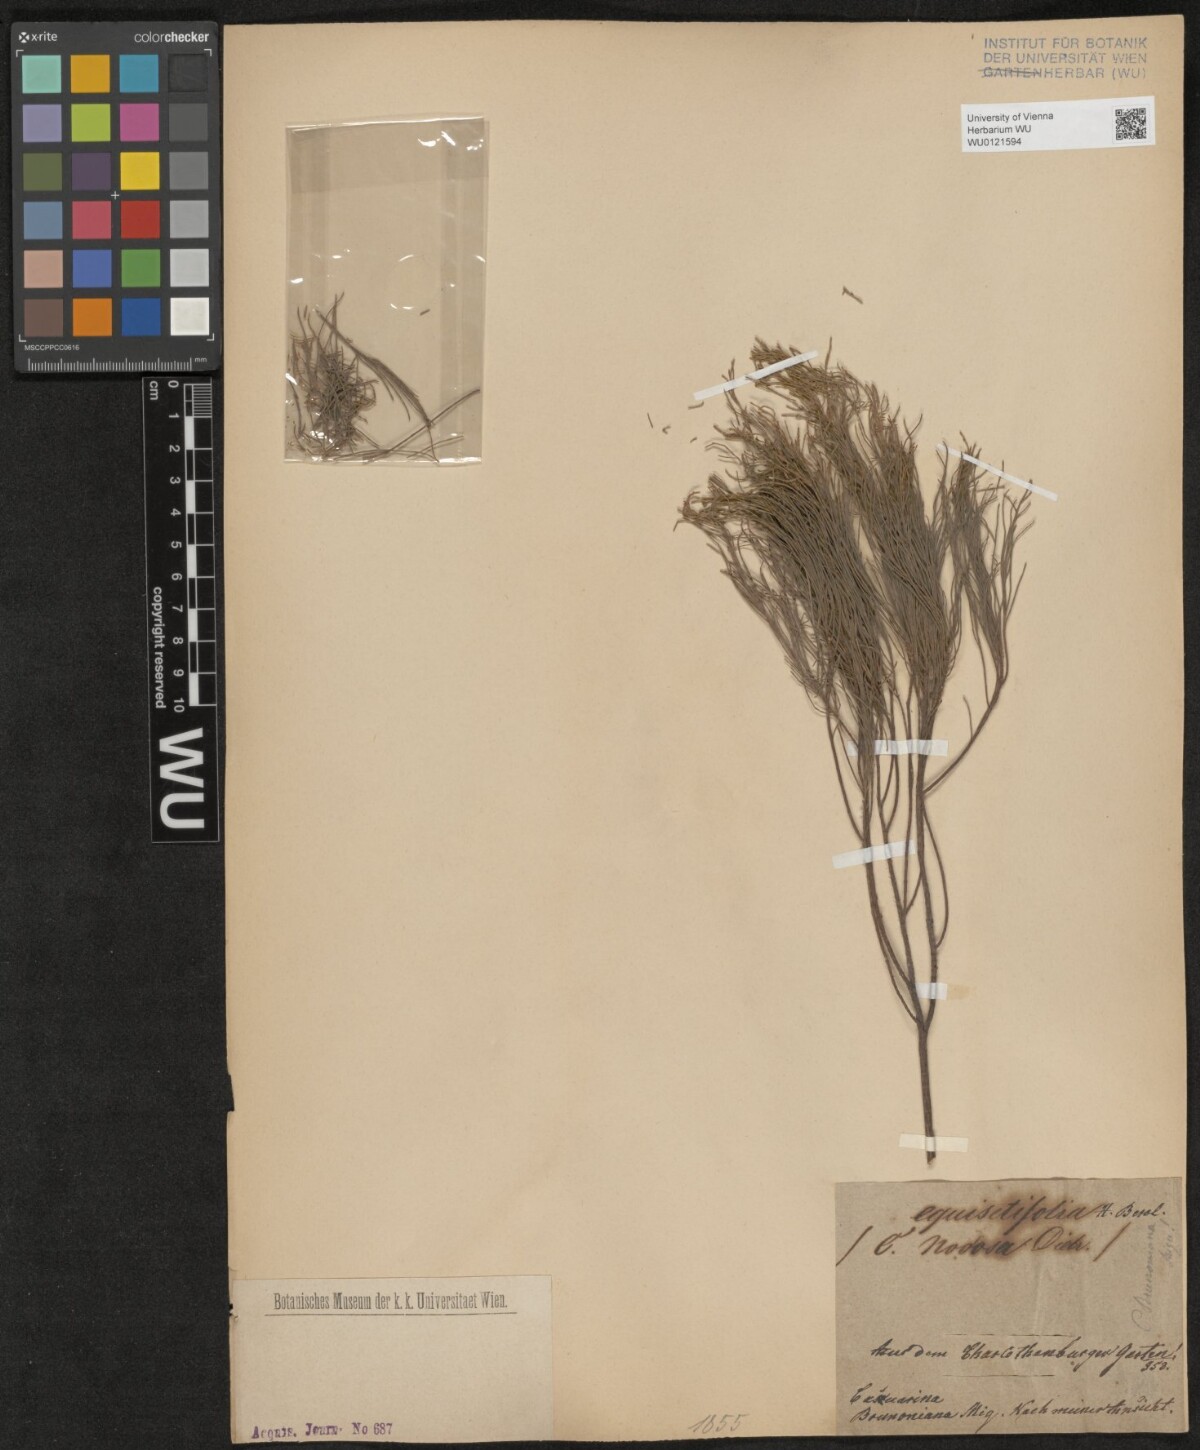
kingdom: Plantae
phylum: Tracheophyta
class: Magnoliopsida
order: Fagales
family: Casuarinaceae
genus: Casuarina
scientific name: Casuarina equisetifolia
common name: Beach sheoak
